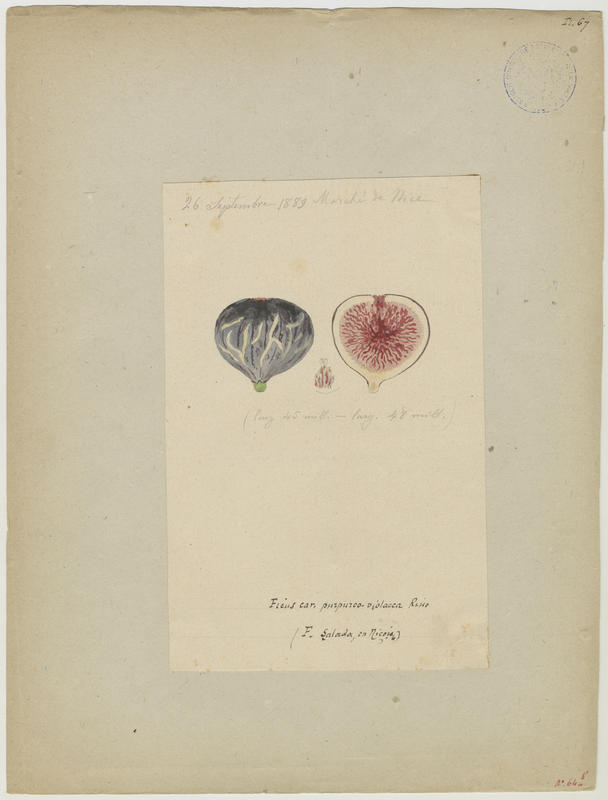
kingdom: Plantae
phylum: Tracheophyta
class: Magnoliopsida
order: Rosales
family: Moraceae
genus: Ficus
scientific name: Ficus carica
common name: Fig
